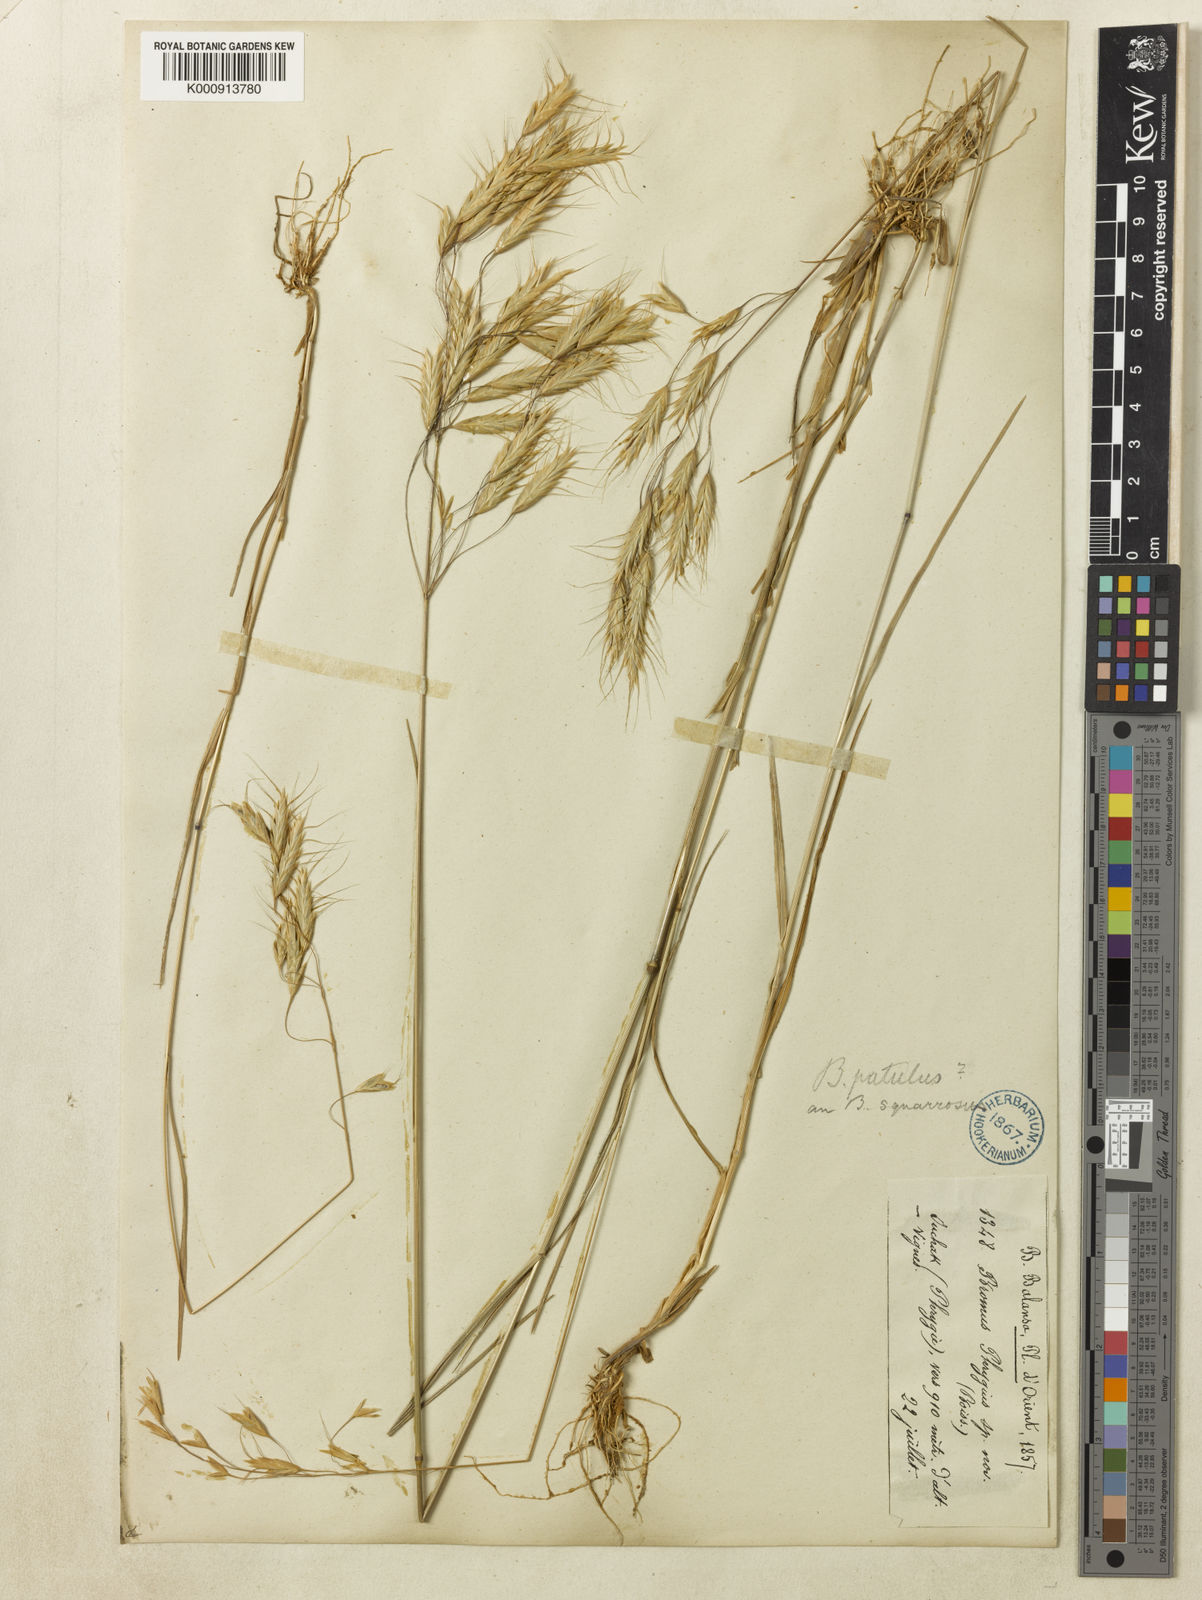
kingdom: Plantae
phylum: Tracheophyta
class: Liliopsida
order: Poales
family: Poaceae
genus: Bromus
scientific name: Bromus
